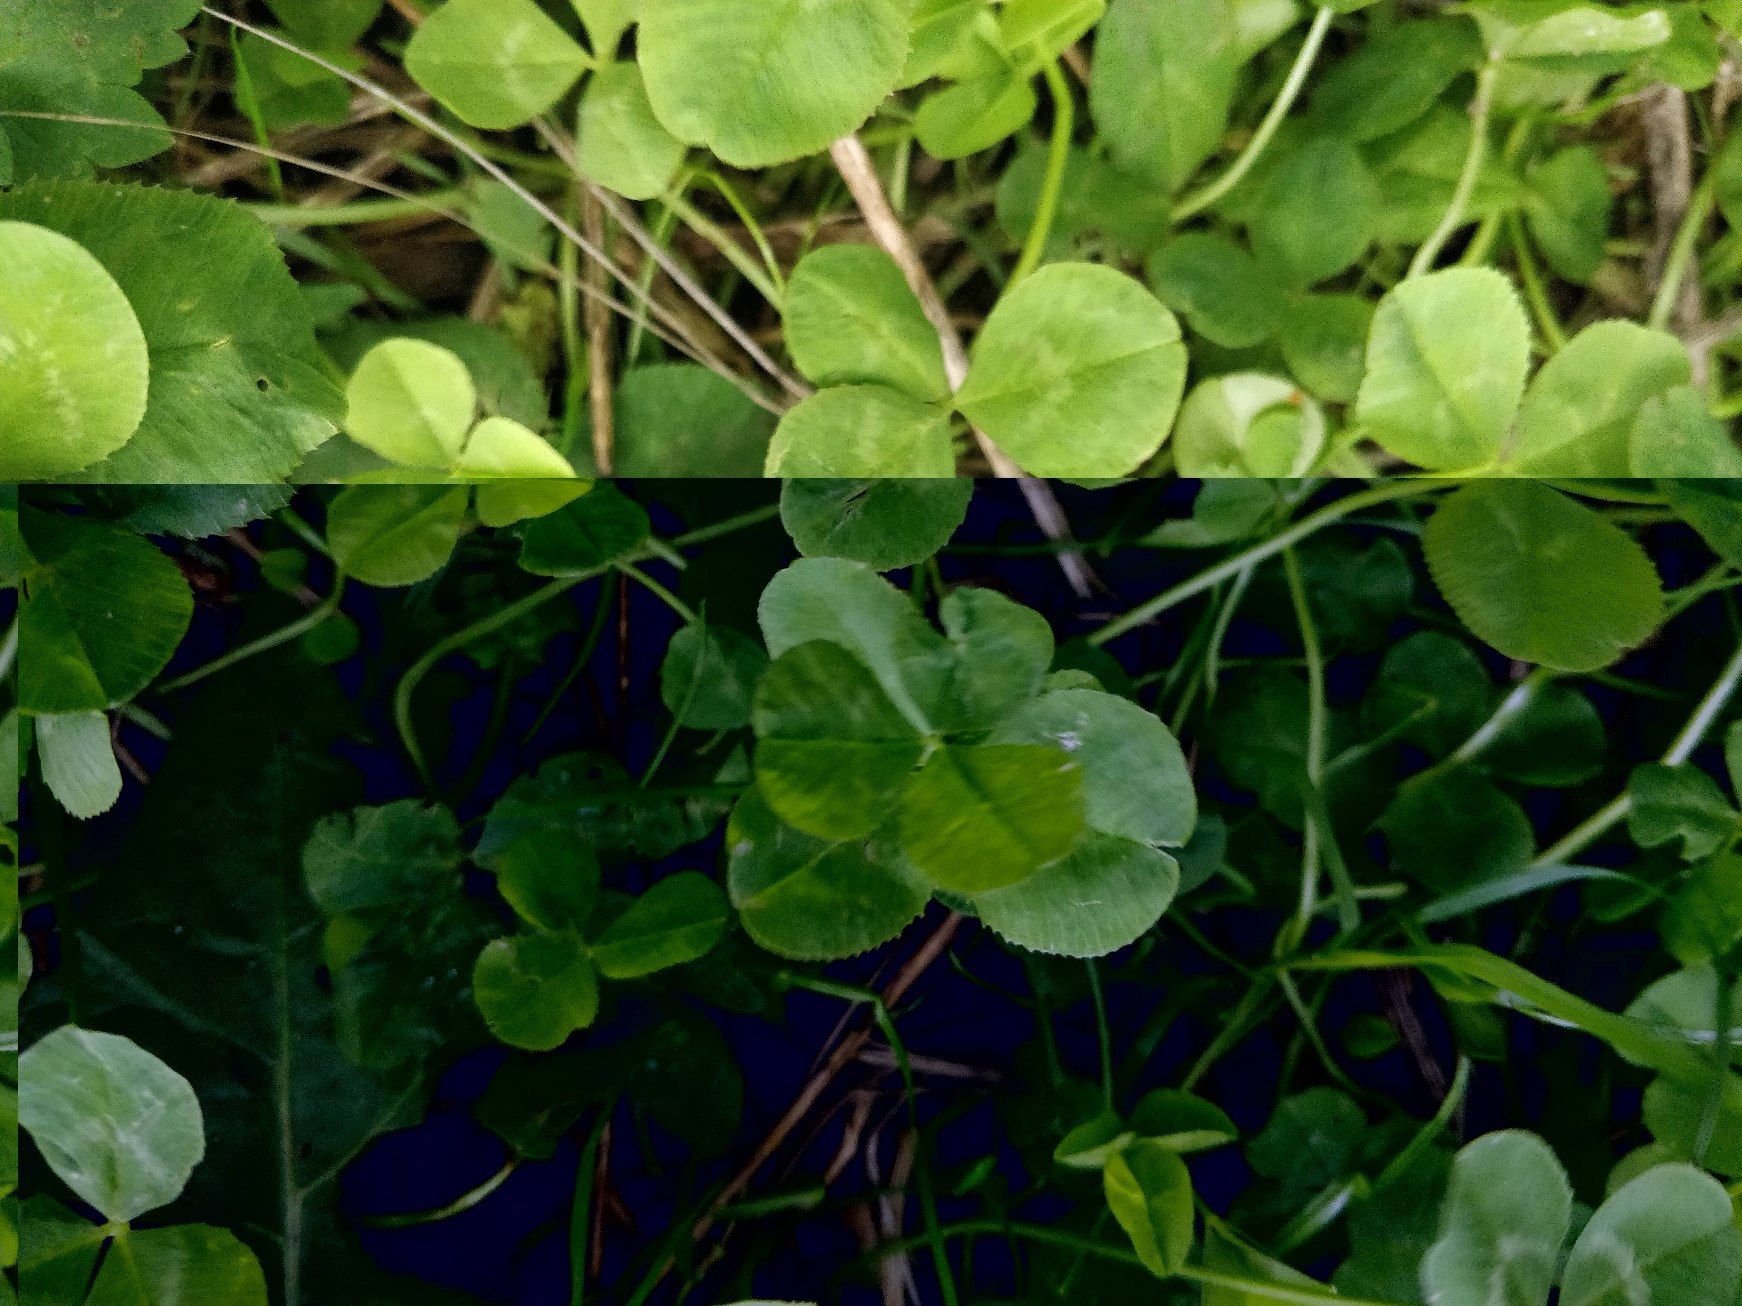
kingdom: Plantae
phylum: Tracheophyta
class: Magnoliopsida
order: Fabales
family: Fabaceae
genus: Trifolium
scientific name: Trifolium repens
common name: Hvid-kløver
